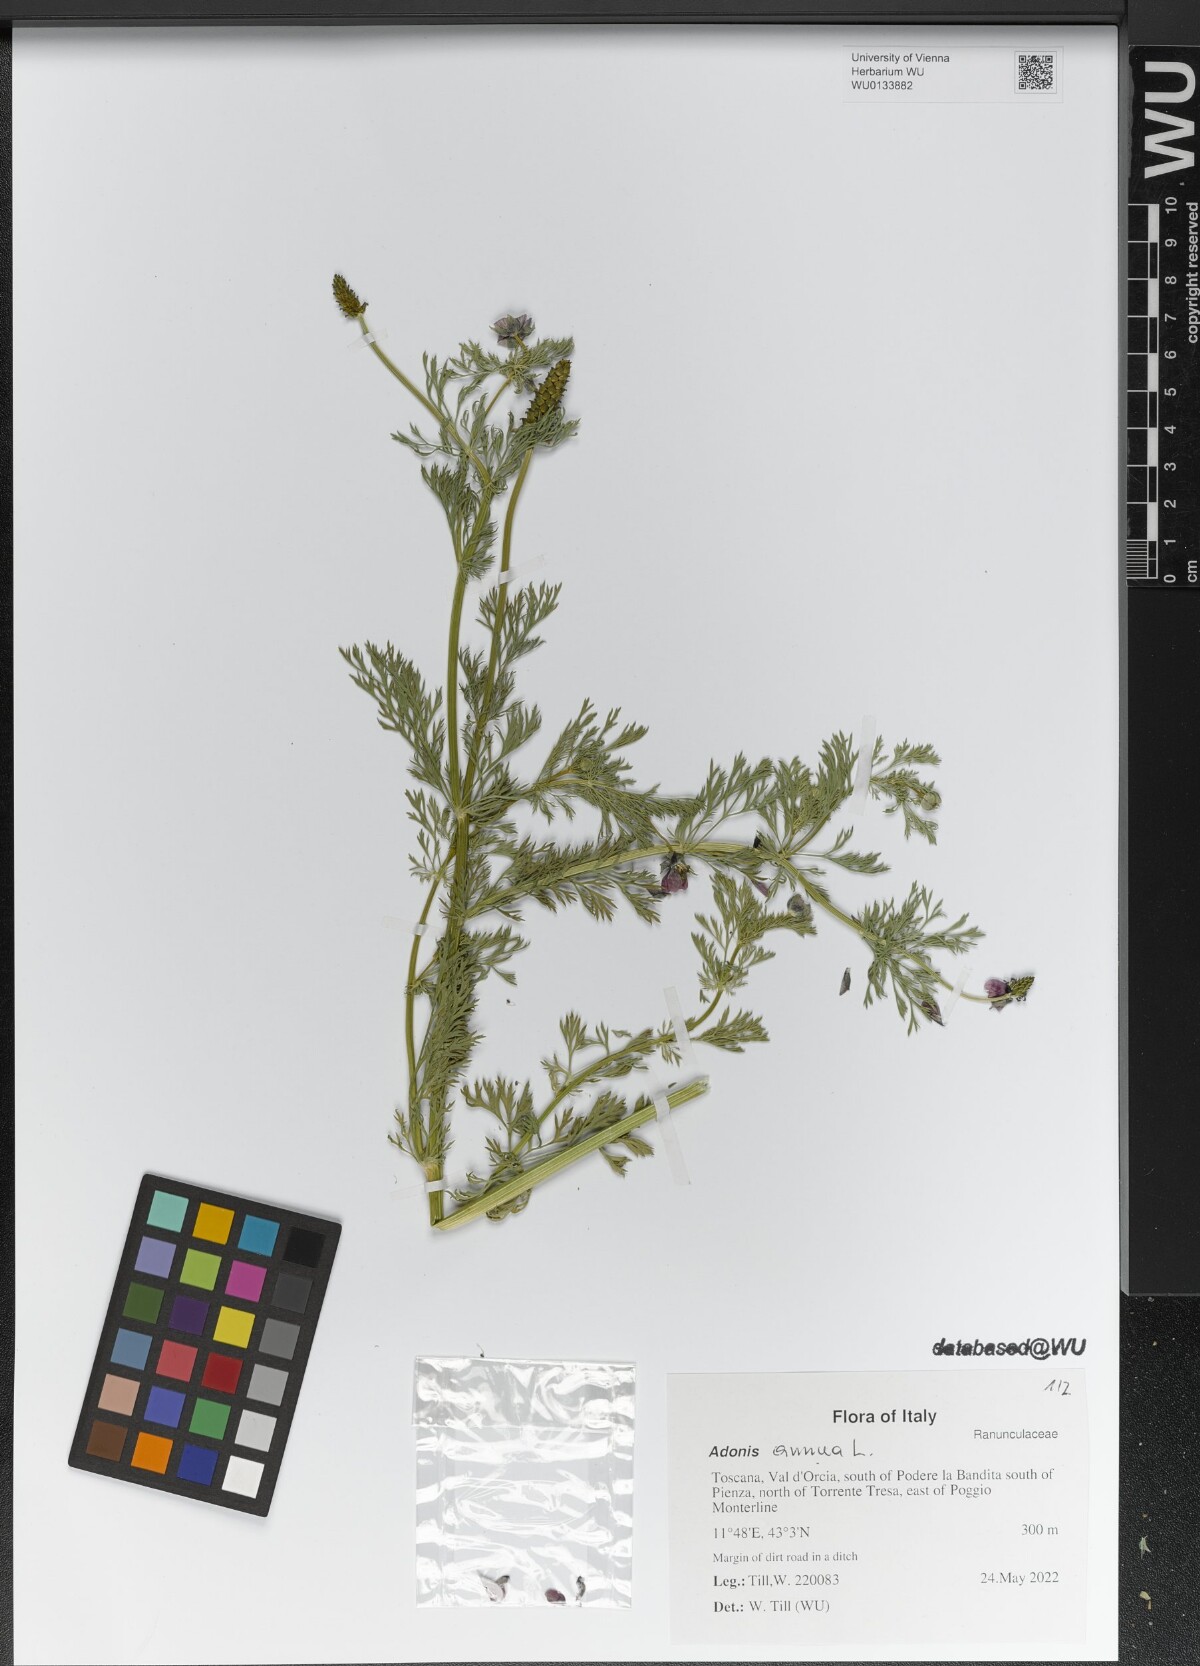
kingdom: Plantae
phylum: Tracheophyta
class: Magnoliopsida
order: Ranunculales
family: Ranunculaceae
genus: Adonis
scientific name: Adonis annua
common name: Pheasant's-eye
